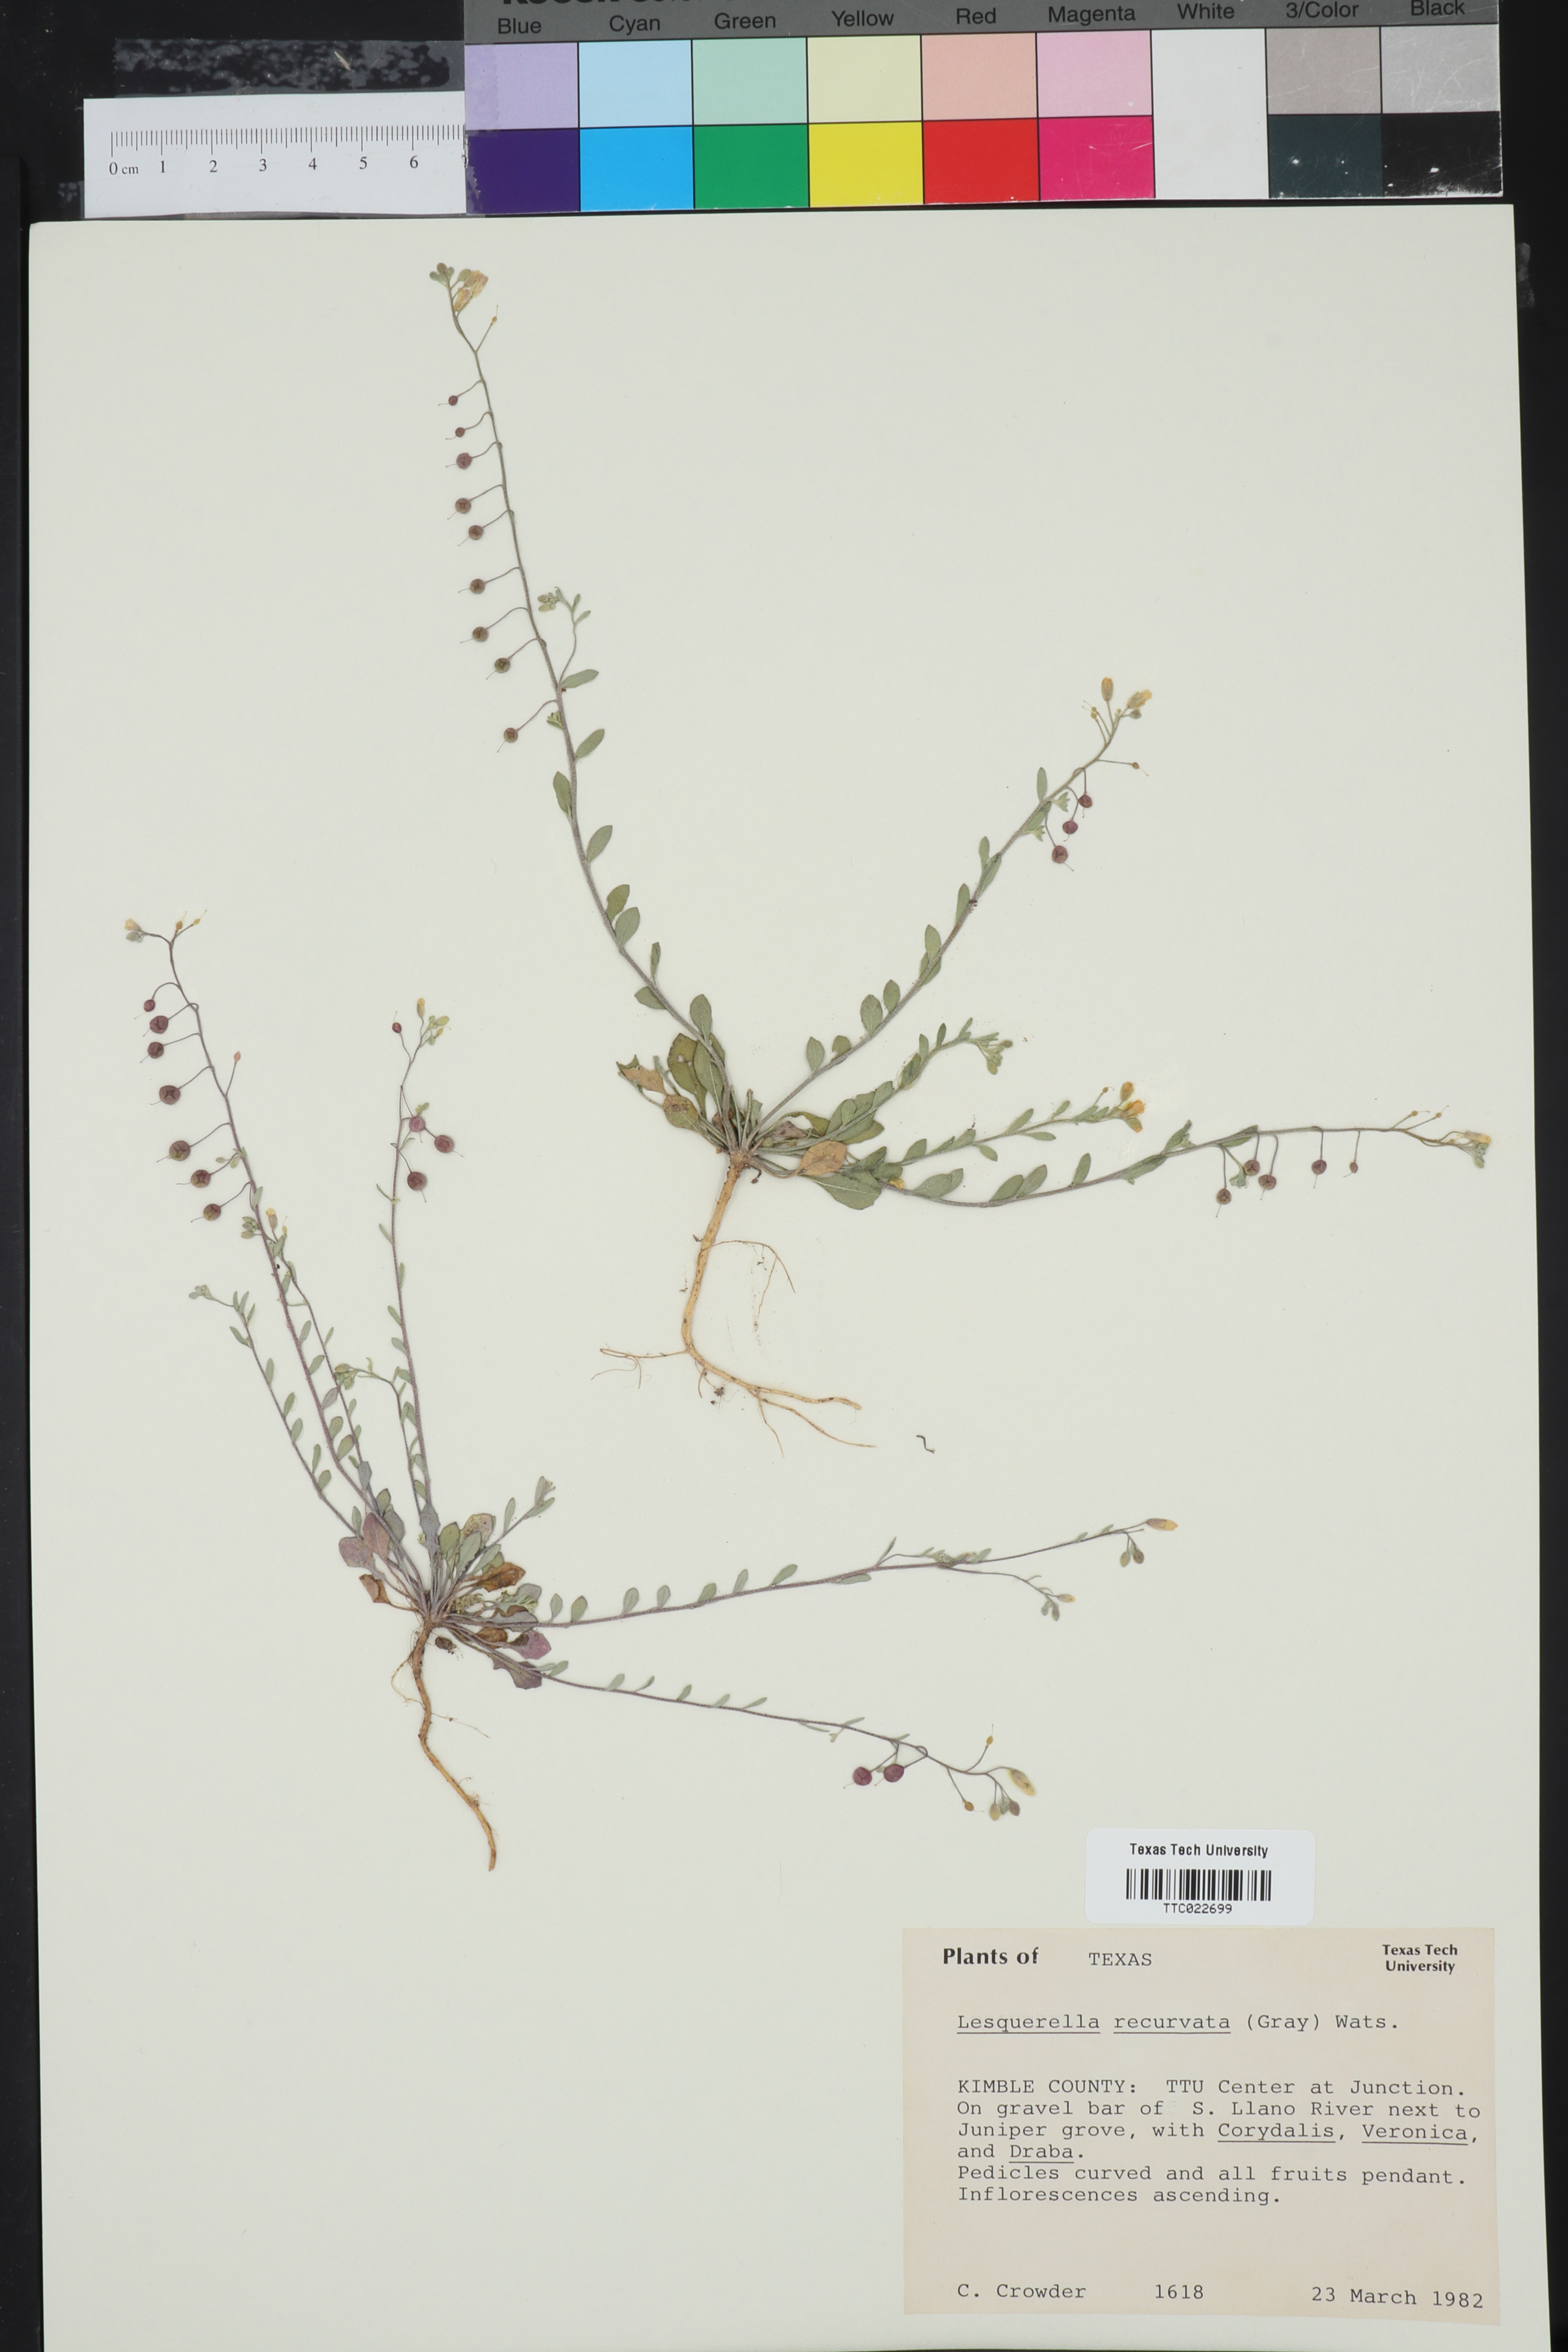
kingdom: Plantae
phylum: Tracheophyta
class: Magnoliopsida
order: Brassicales
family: Brassicaceae
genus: Physaria
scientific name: Physaria recurvata
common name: Gaslight bladderpod
